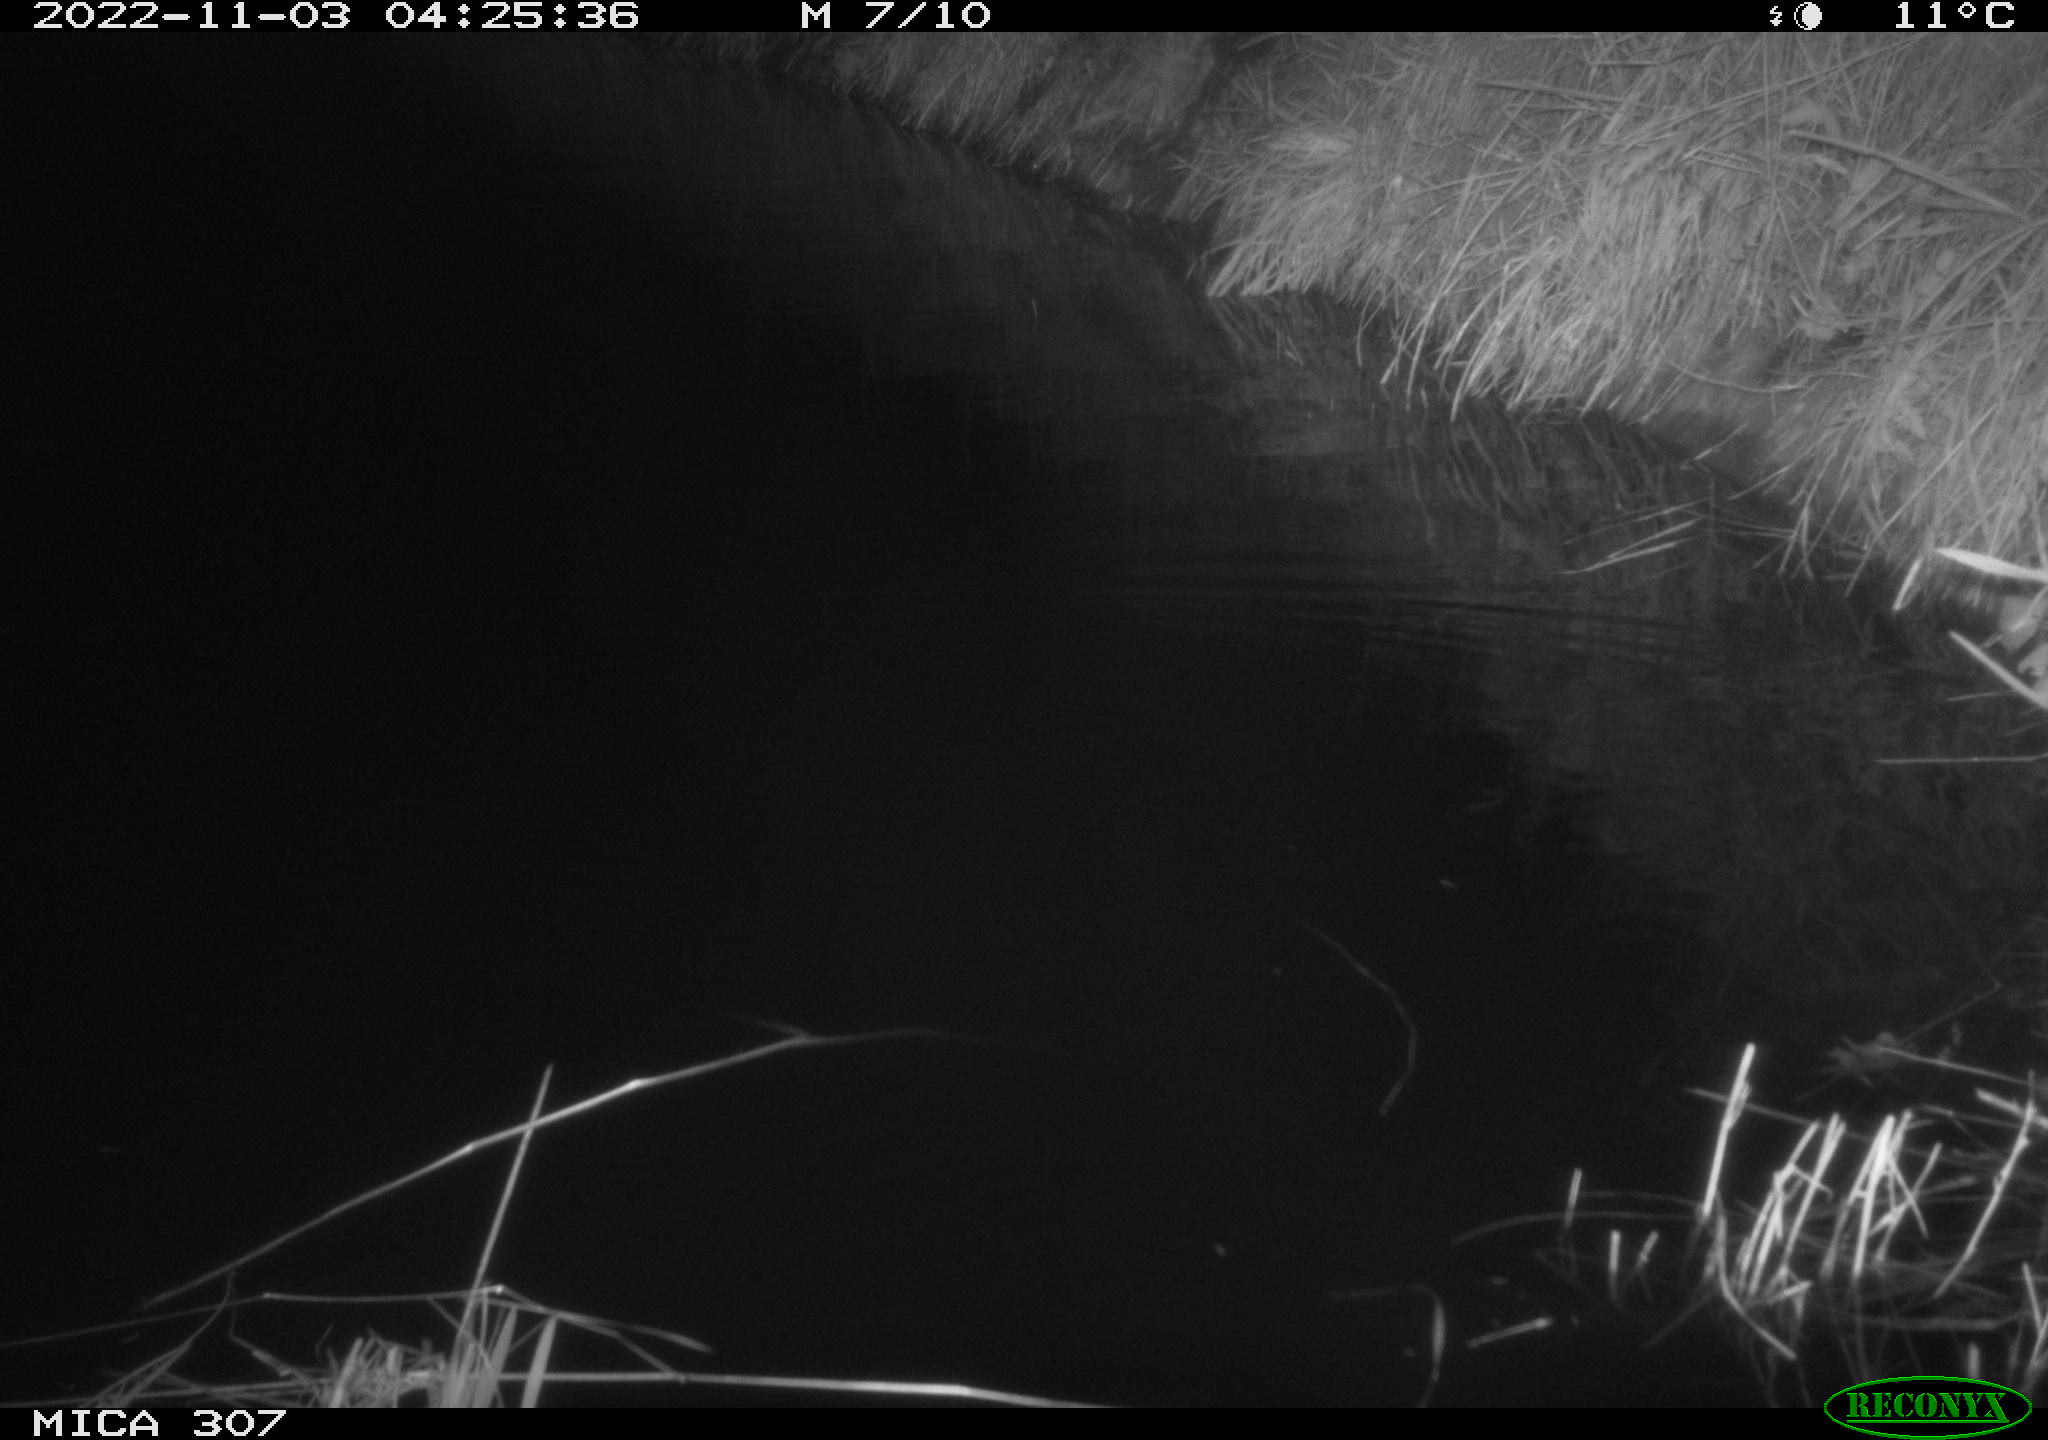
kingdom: Animalia
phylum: Chordata
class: Mammalia
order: Rodentia
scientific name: Rodentia
